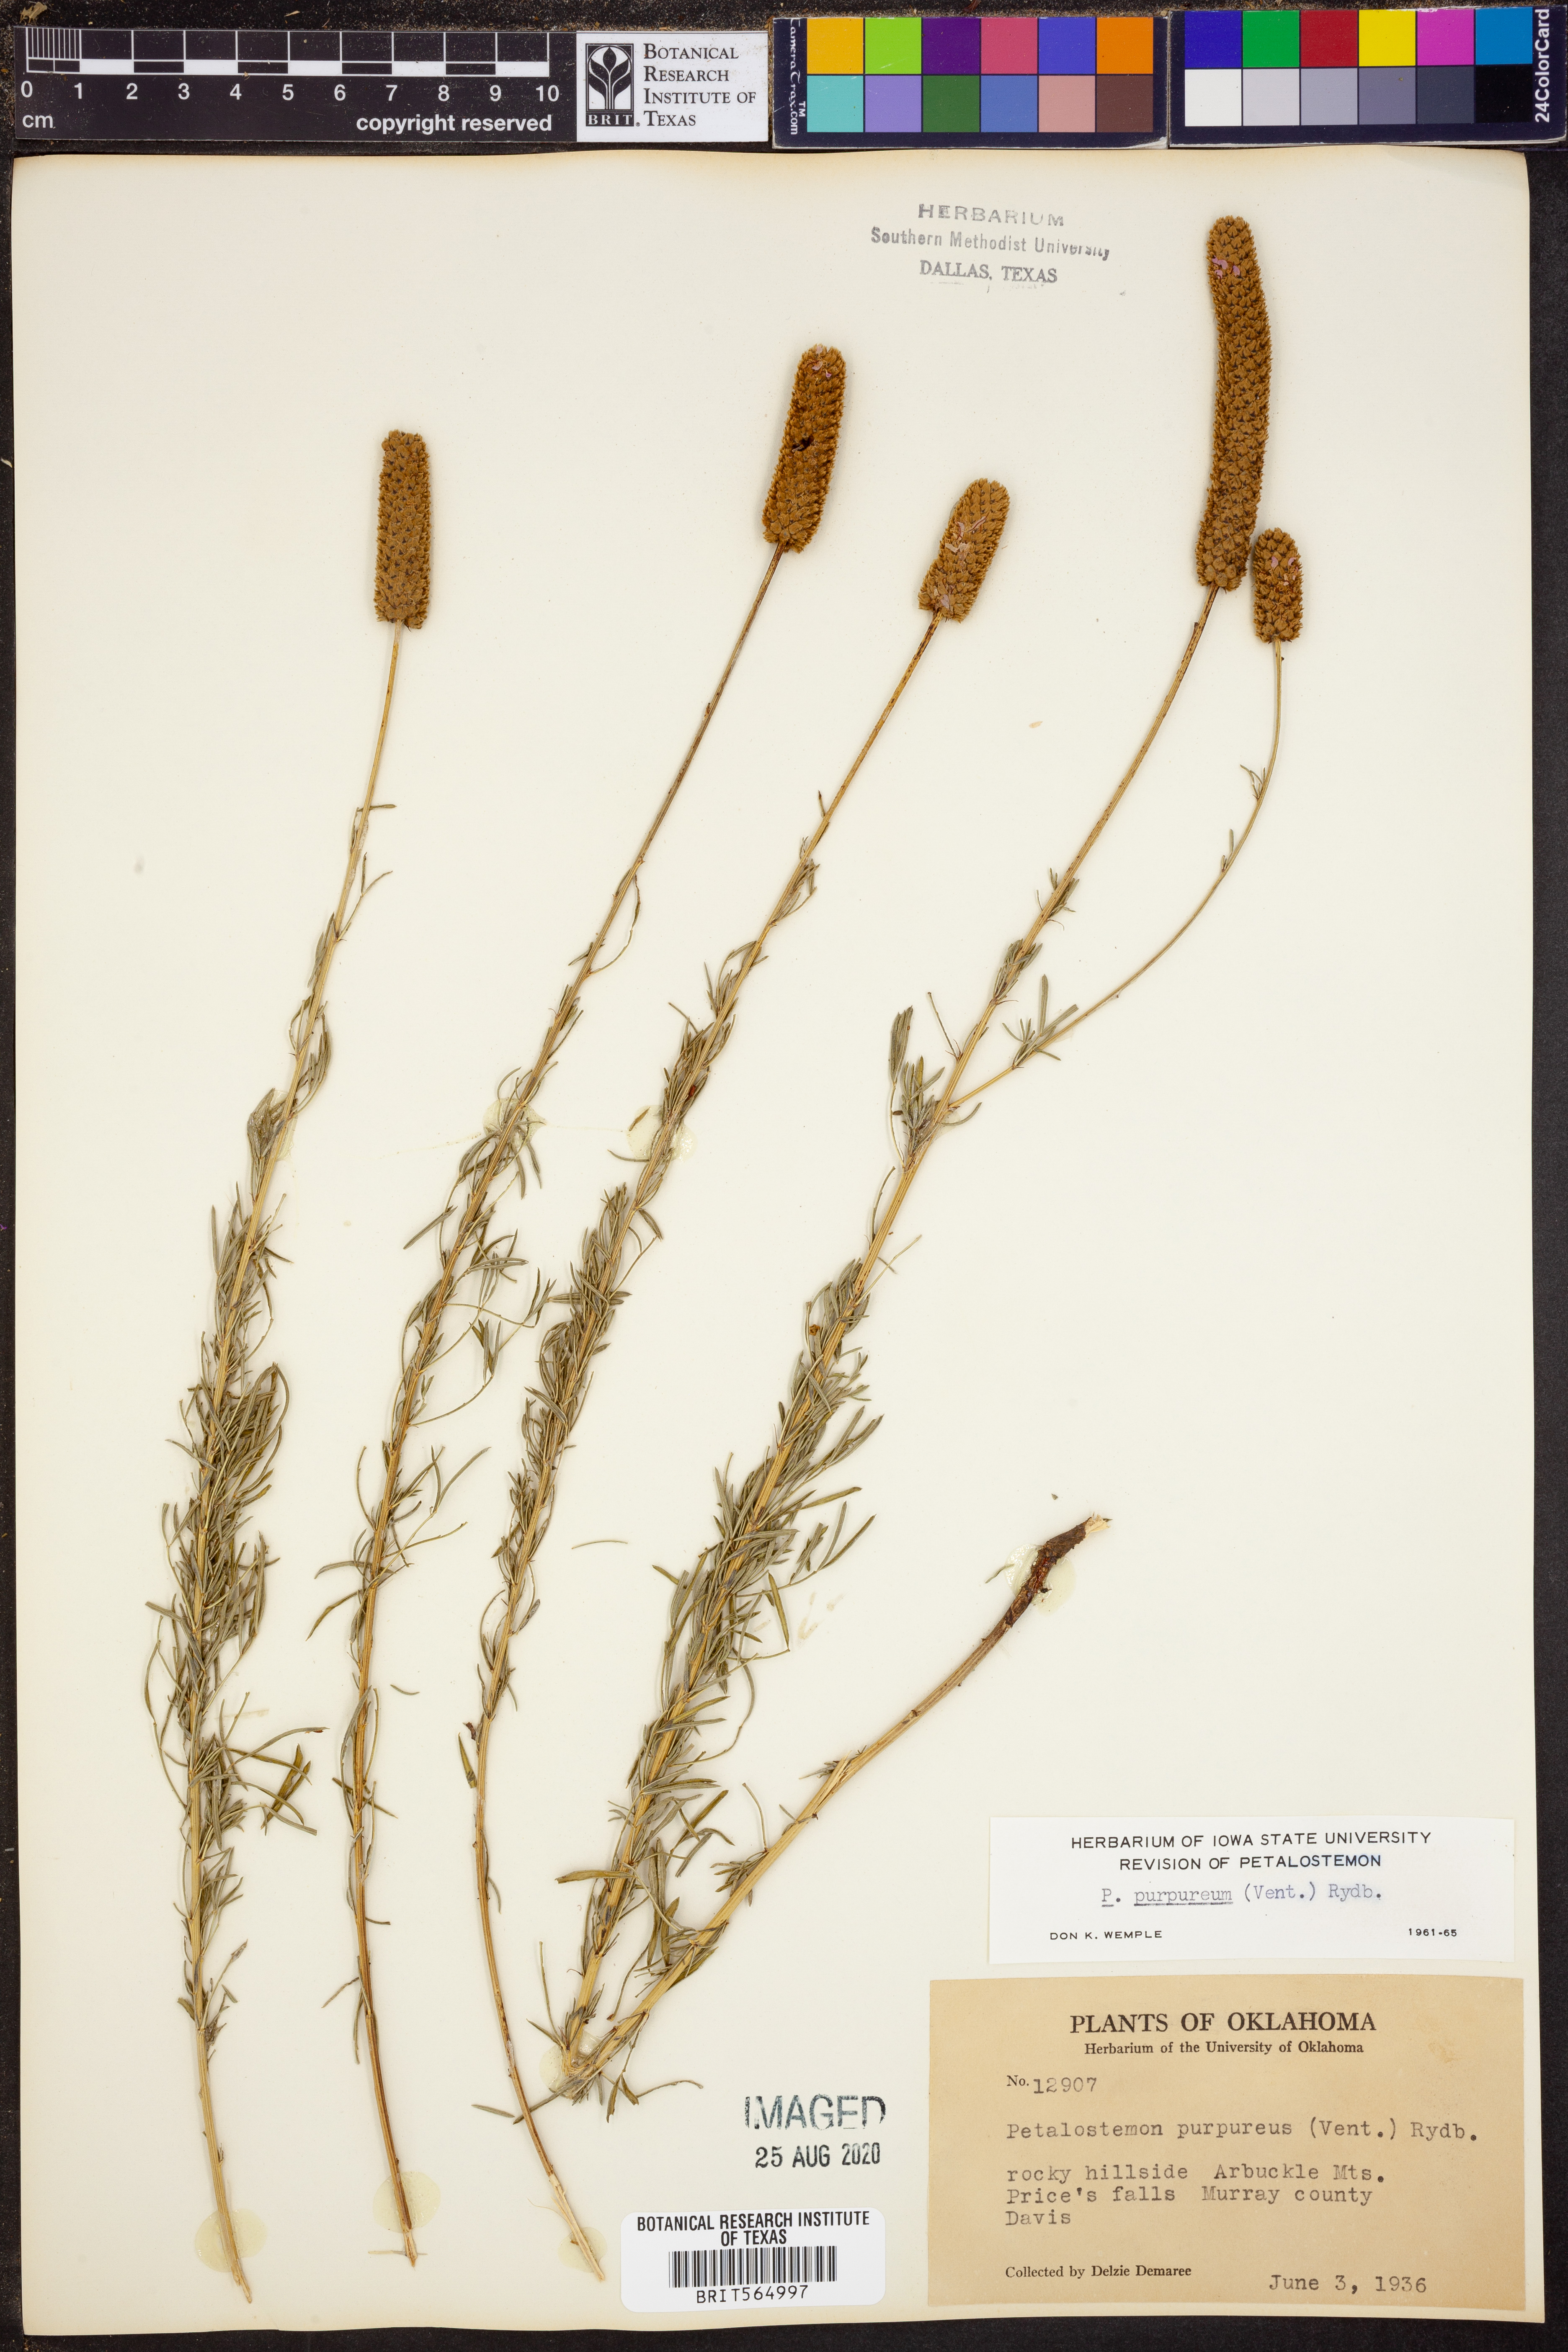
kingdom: Plantae
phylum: Tracheophyta
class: Magnoliopsida
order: Fabales
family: Fabaceae
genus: Dalea
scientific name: Dalea purpurea
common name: Purple prairie-clover
